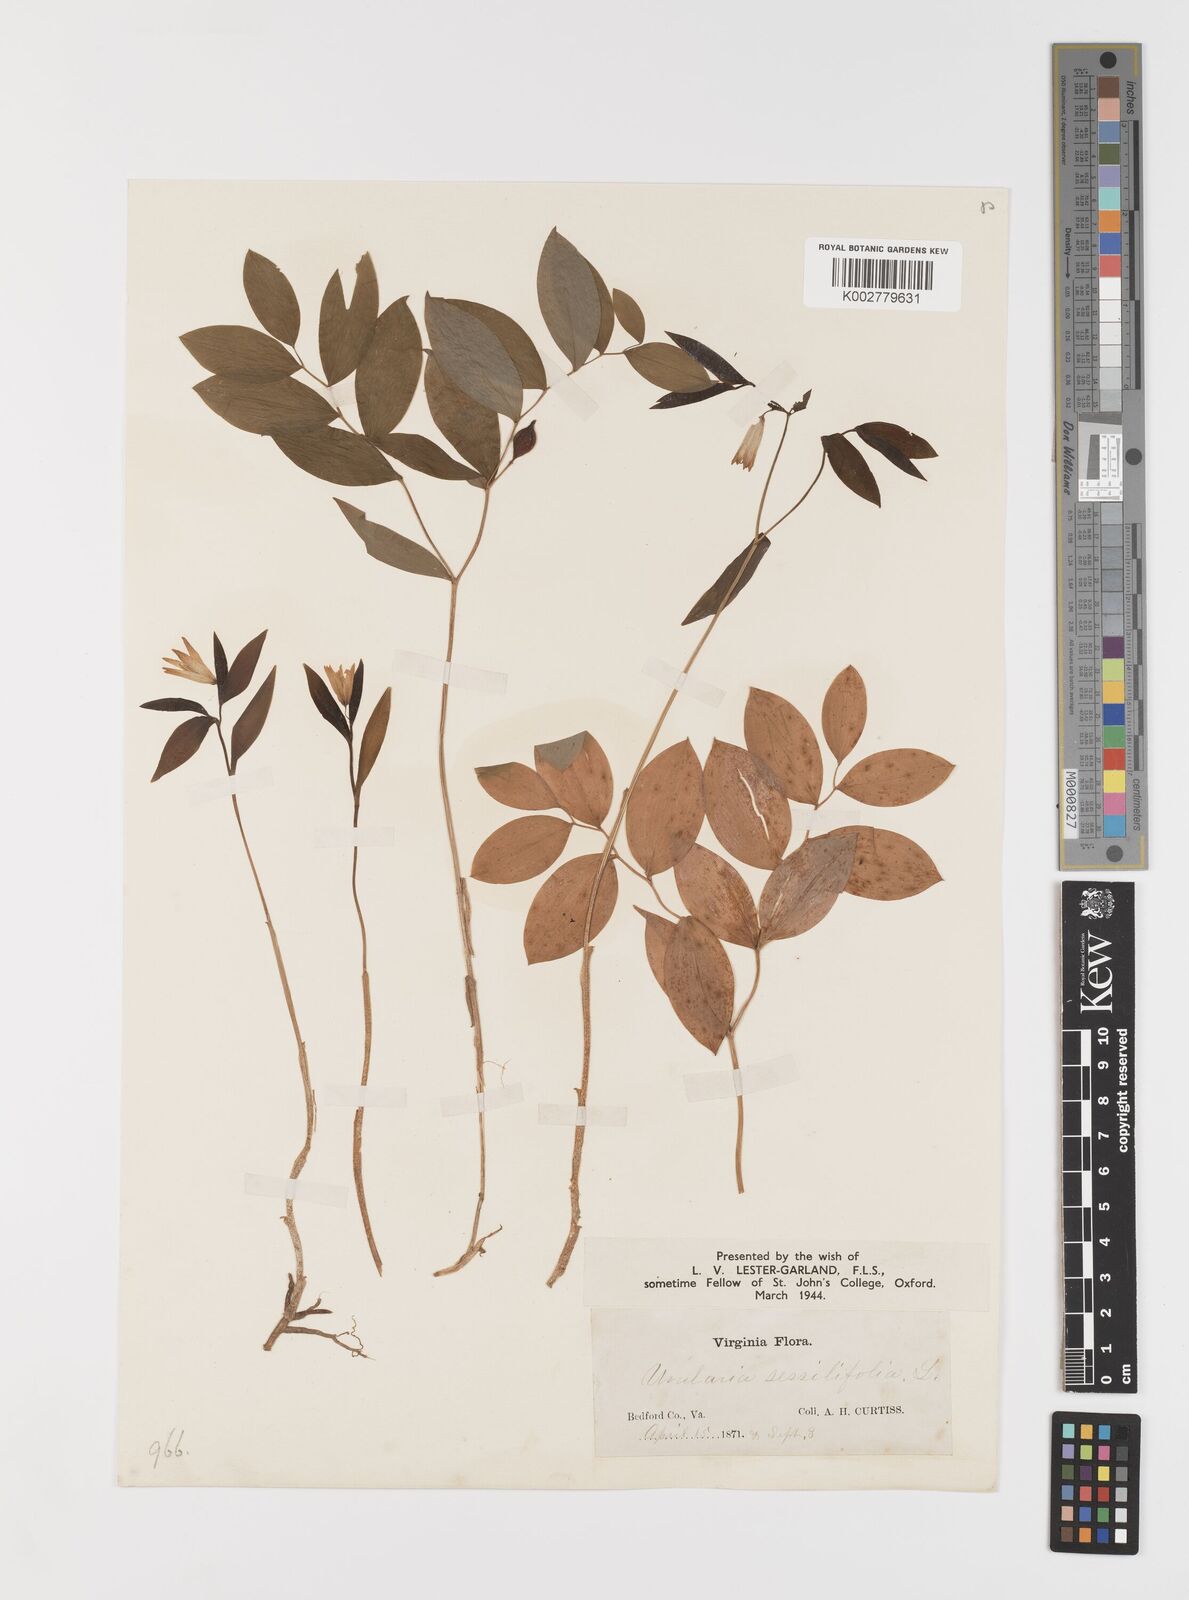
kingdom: Plantae
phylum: Tracheophyta
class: Liliopsida
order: Liliales
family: Colchicaceae
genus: Uvularia
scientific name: Uvularia sessilifolia
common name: Straw-lily
